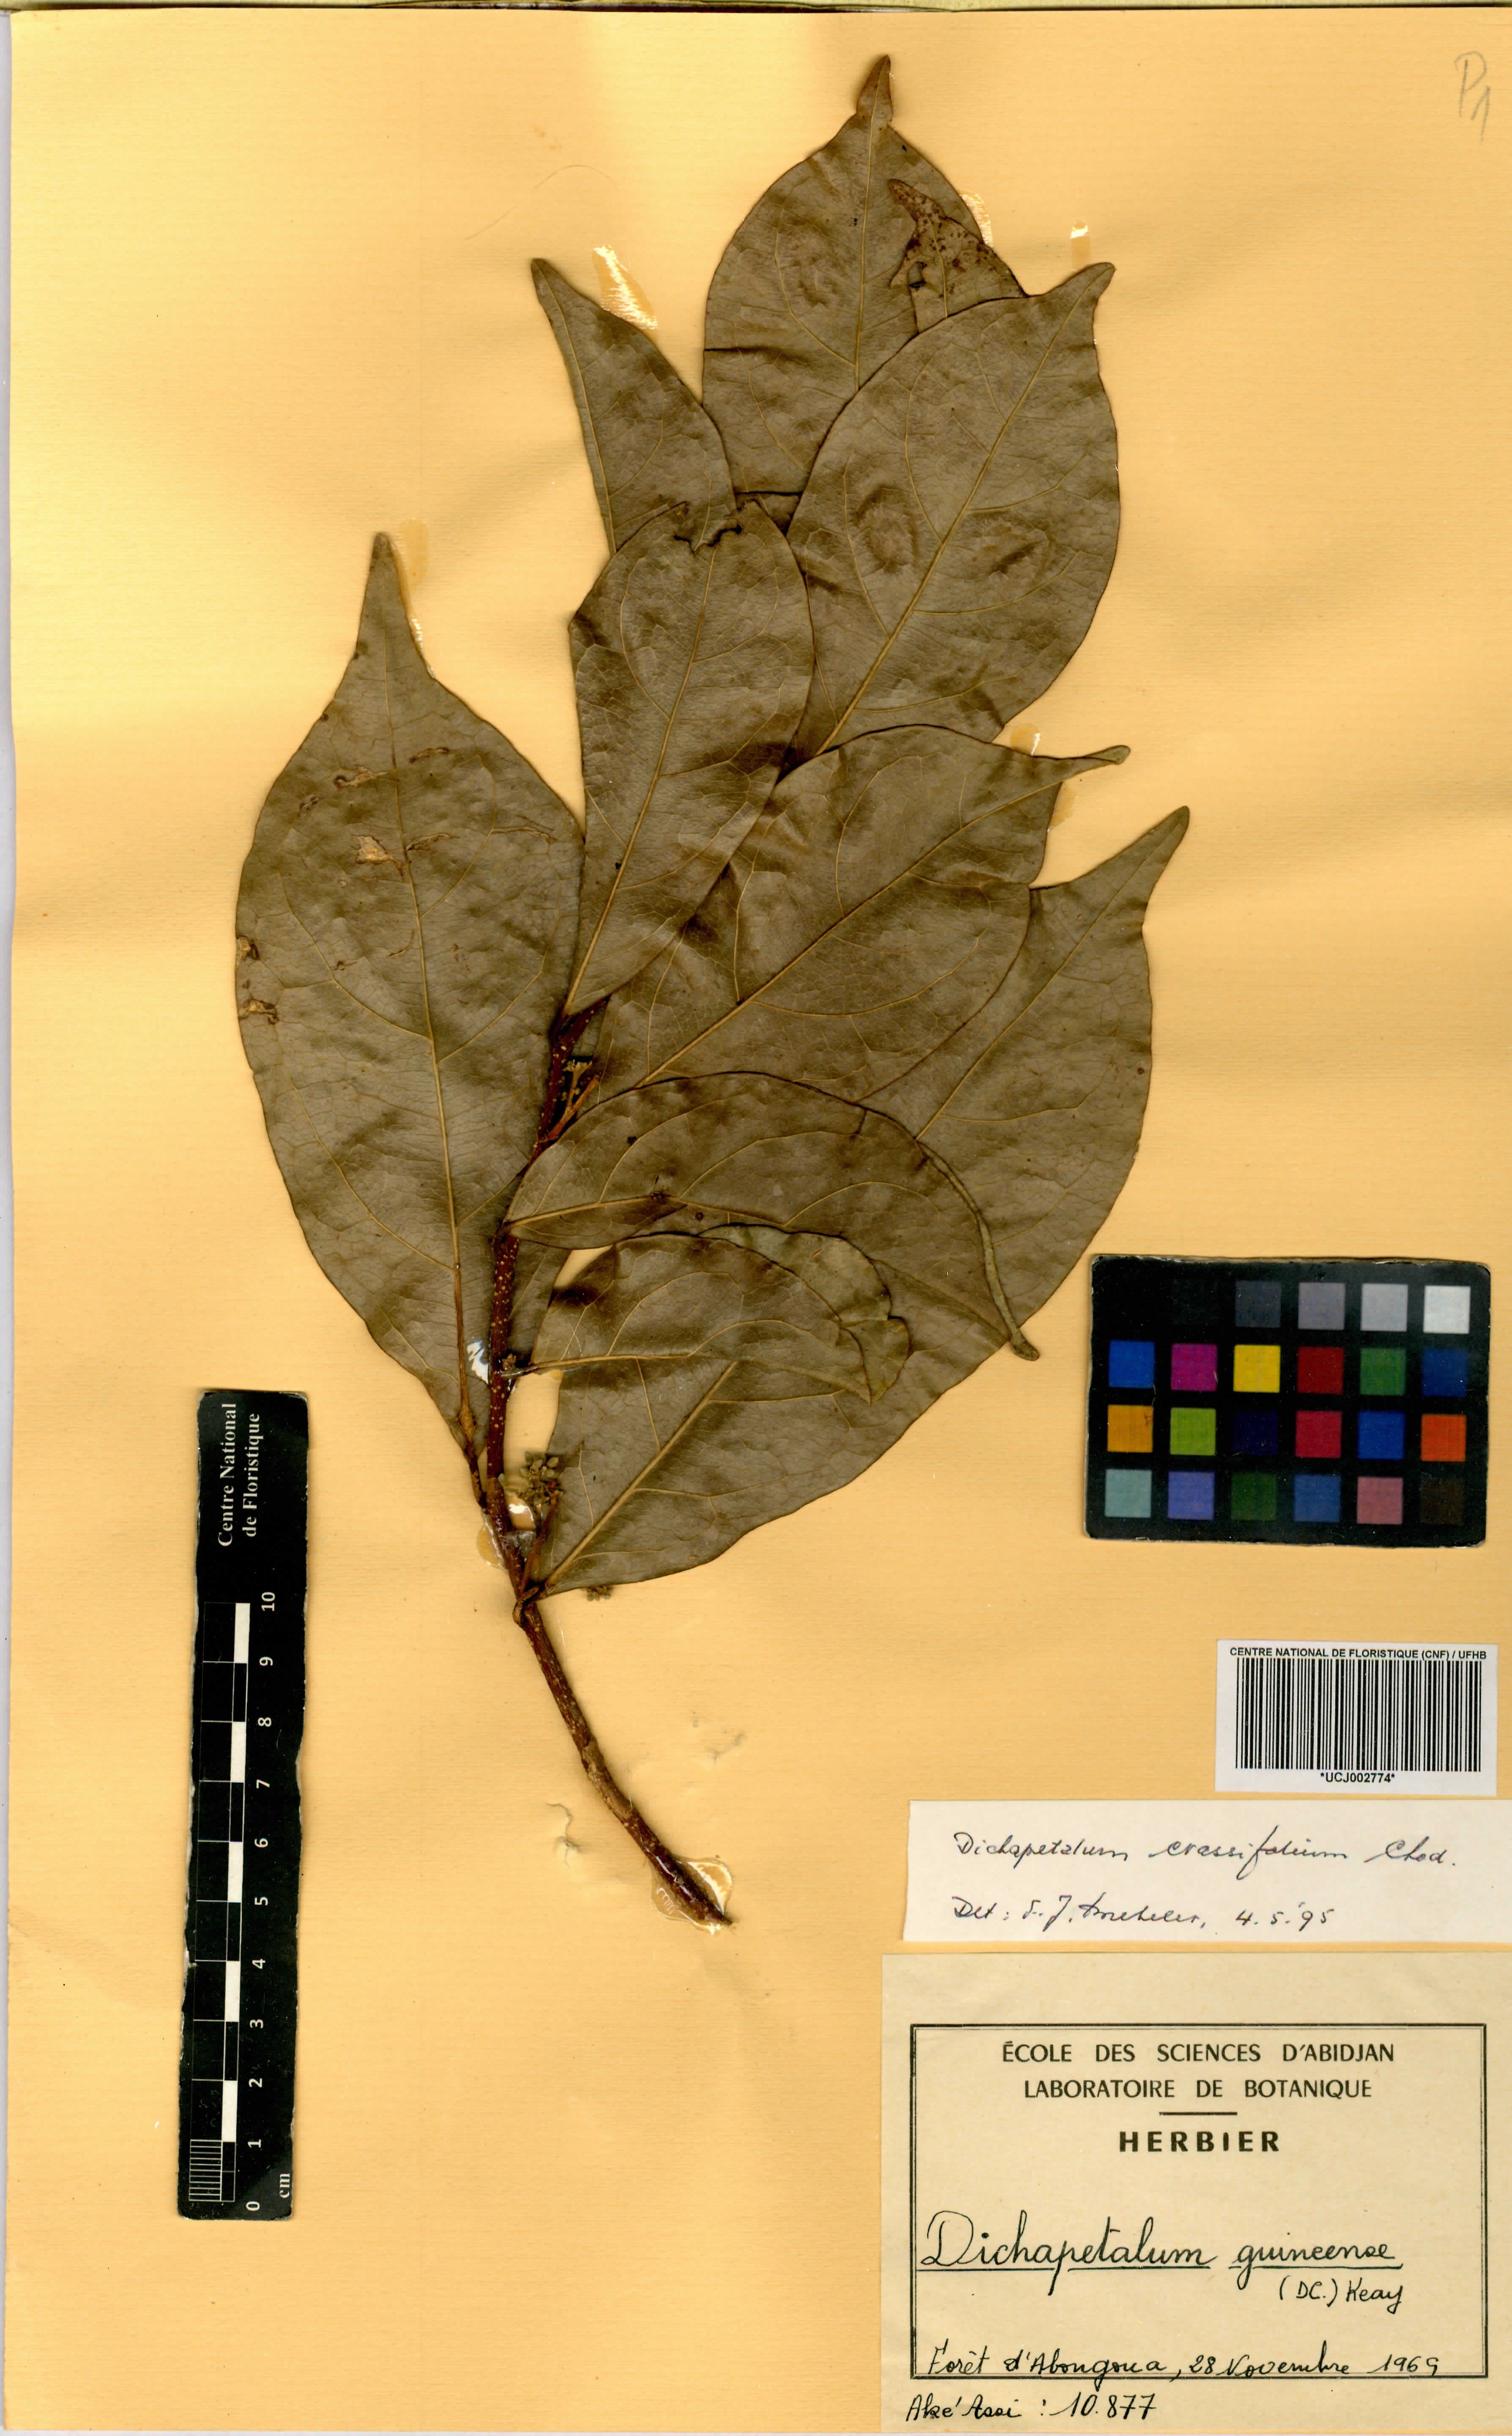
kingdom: Plantae
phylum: Tracheophyta
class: Magnoliopsida
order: Malpighiales
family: Dichapetalaceae
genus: Dichapetalum
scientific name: Dichapetalum madagascariense
